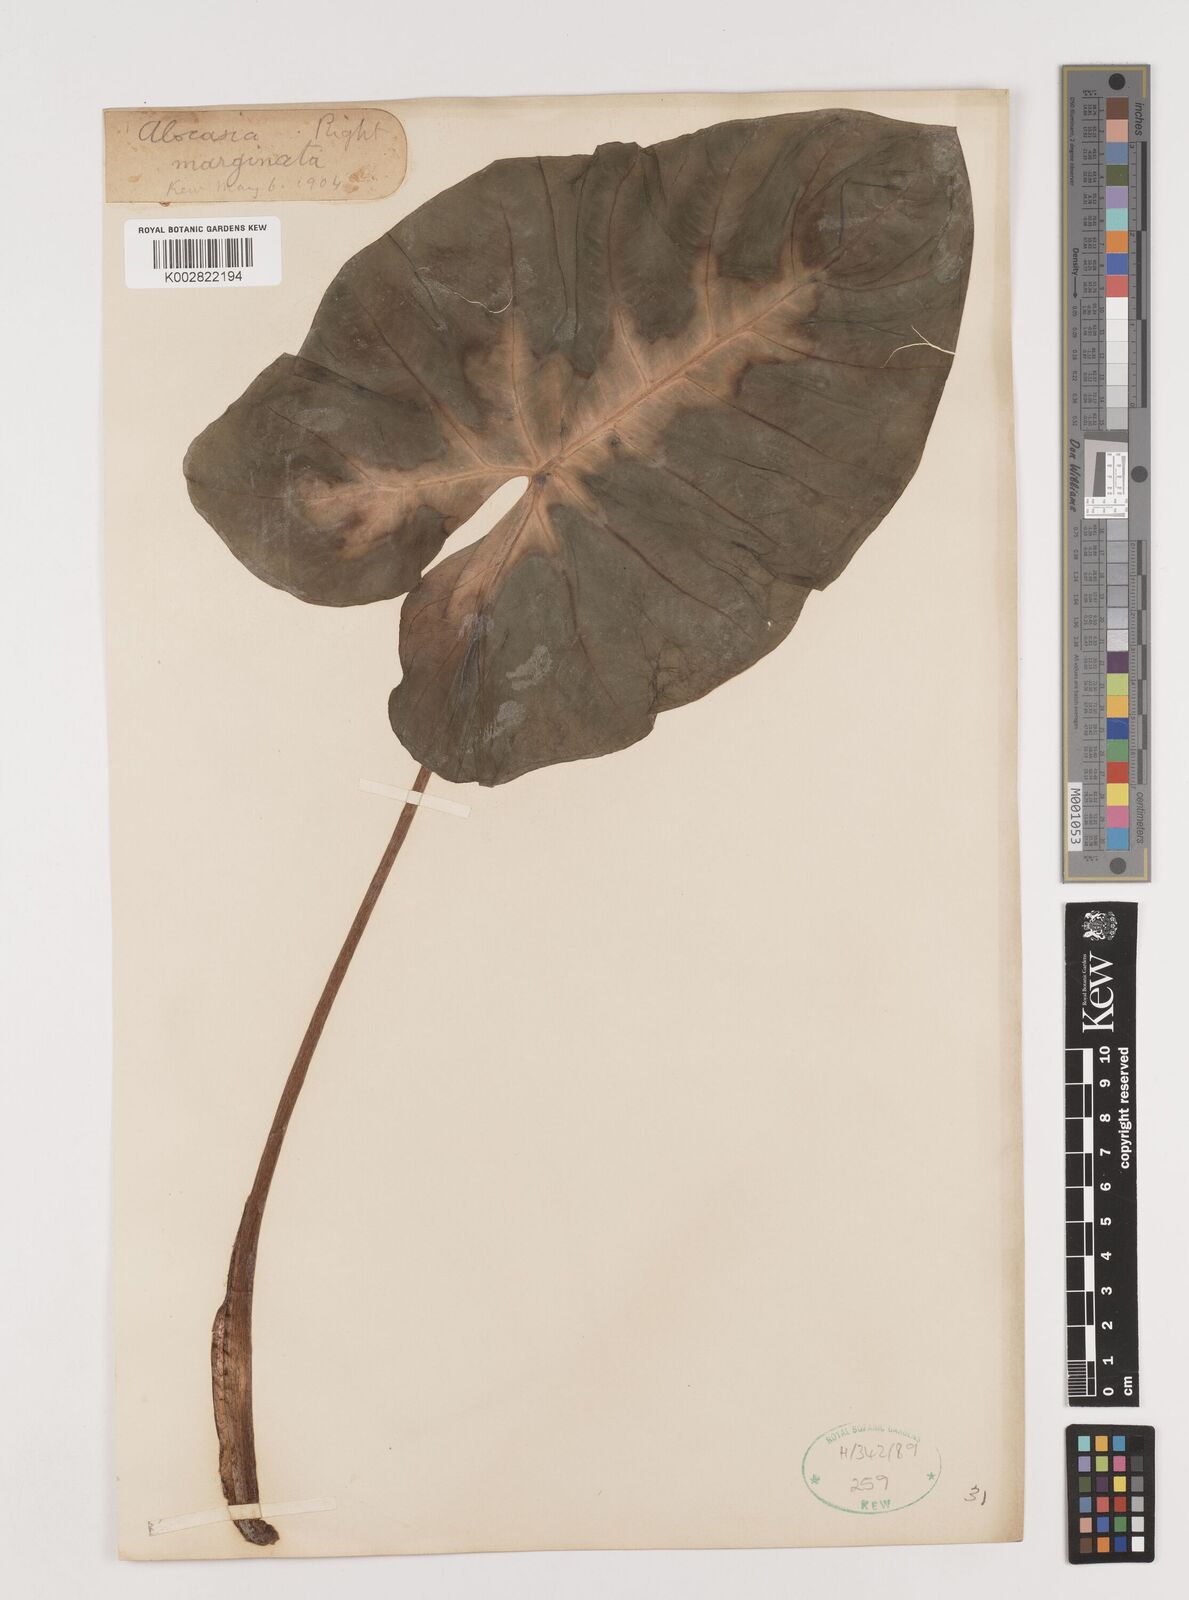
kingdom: Plantae
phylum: Tracheophyta
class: Liliopsida
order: Alismatales
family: Araceae
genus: Alocasia
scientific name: Alocasia macrorrhizos
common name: Giant taro
